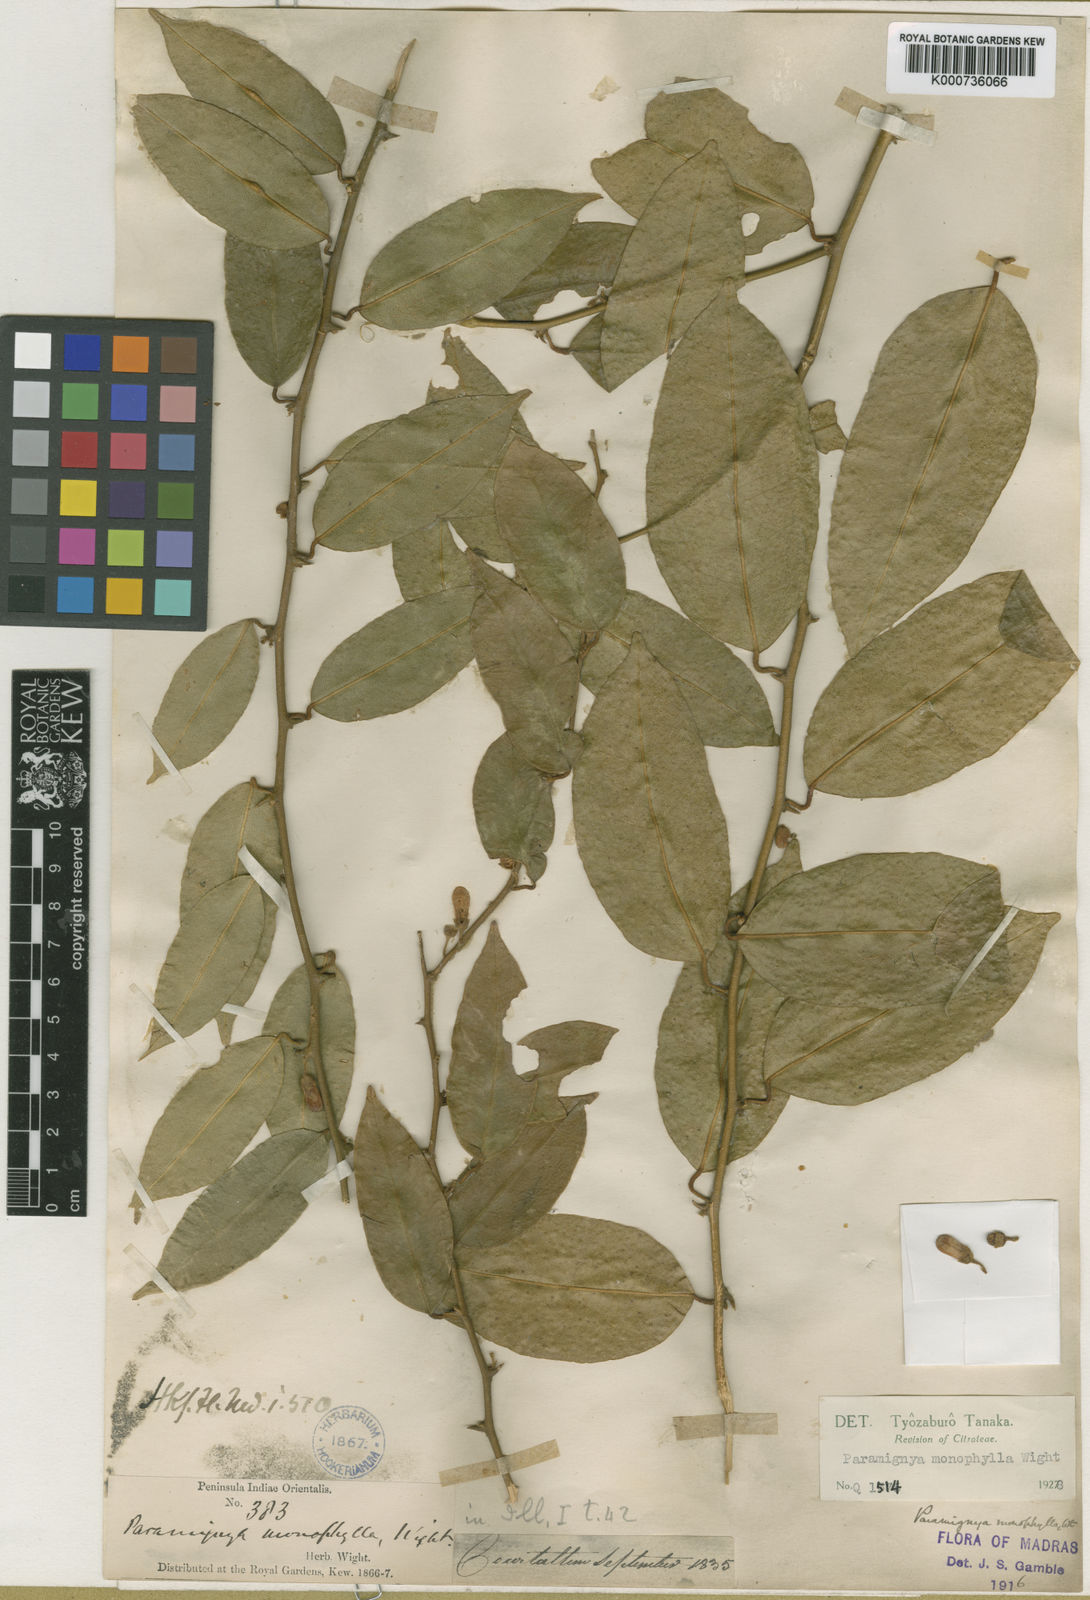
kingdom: Plantae
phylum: Tracheophyta
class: Magnoliopsida
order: Sapindales
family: Rutaceae
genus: Paramignya
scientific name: Paramignya monophylla
